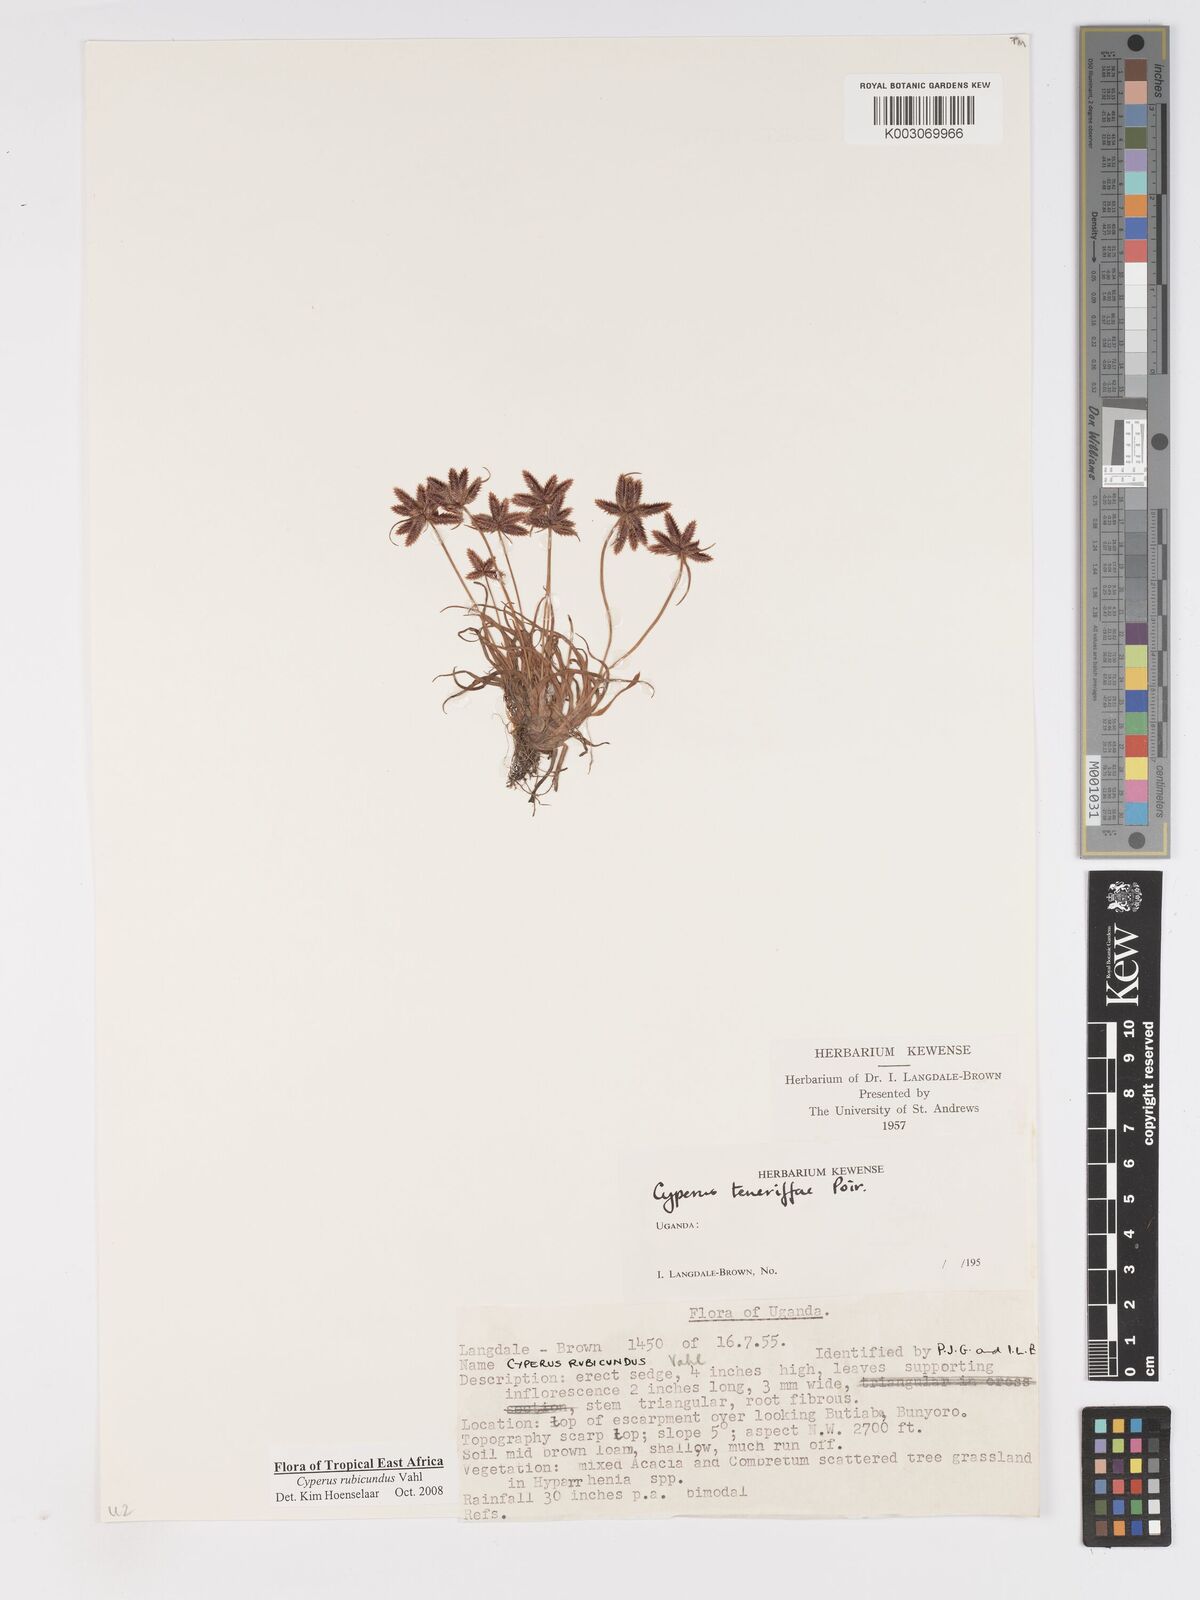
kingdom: Plantae
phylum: Tracheophyta
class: Liliopsida
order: Poales
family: Cyperaceae
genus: Cyperus
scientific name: Cyperus rubicundus
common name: Coco-grass
